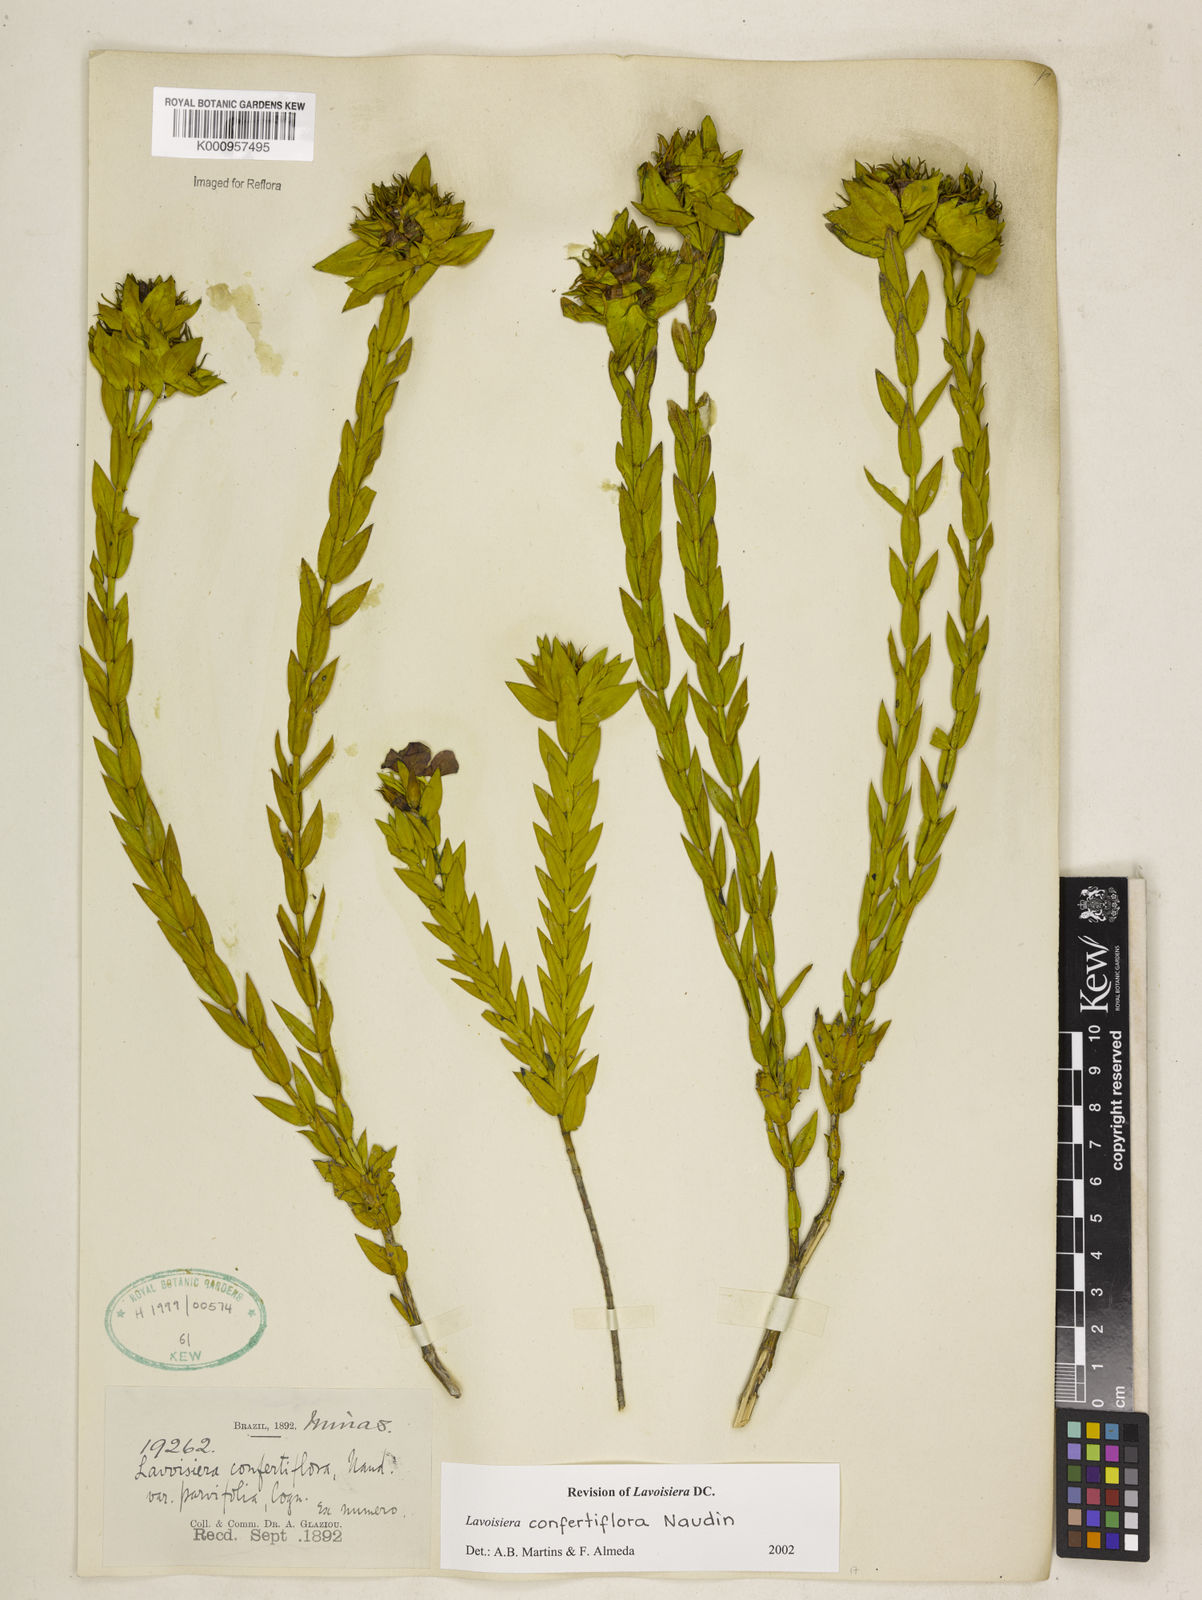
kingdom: Plantae
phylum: Tracheophyta
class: Magnoliopsida
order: Myrtales
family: Melastomataceae
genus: Microlicia
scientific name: Microlicia congestiflora
